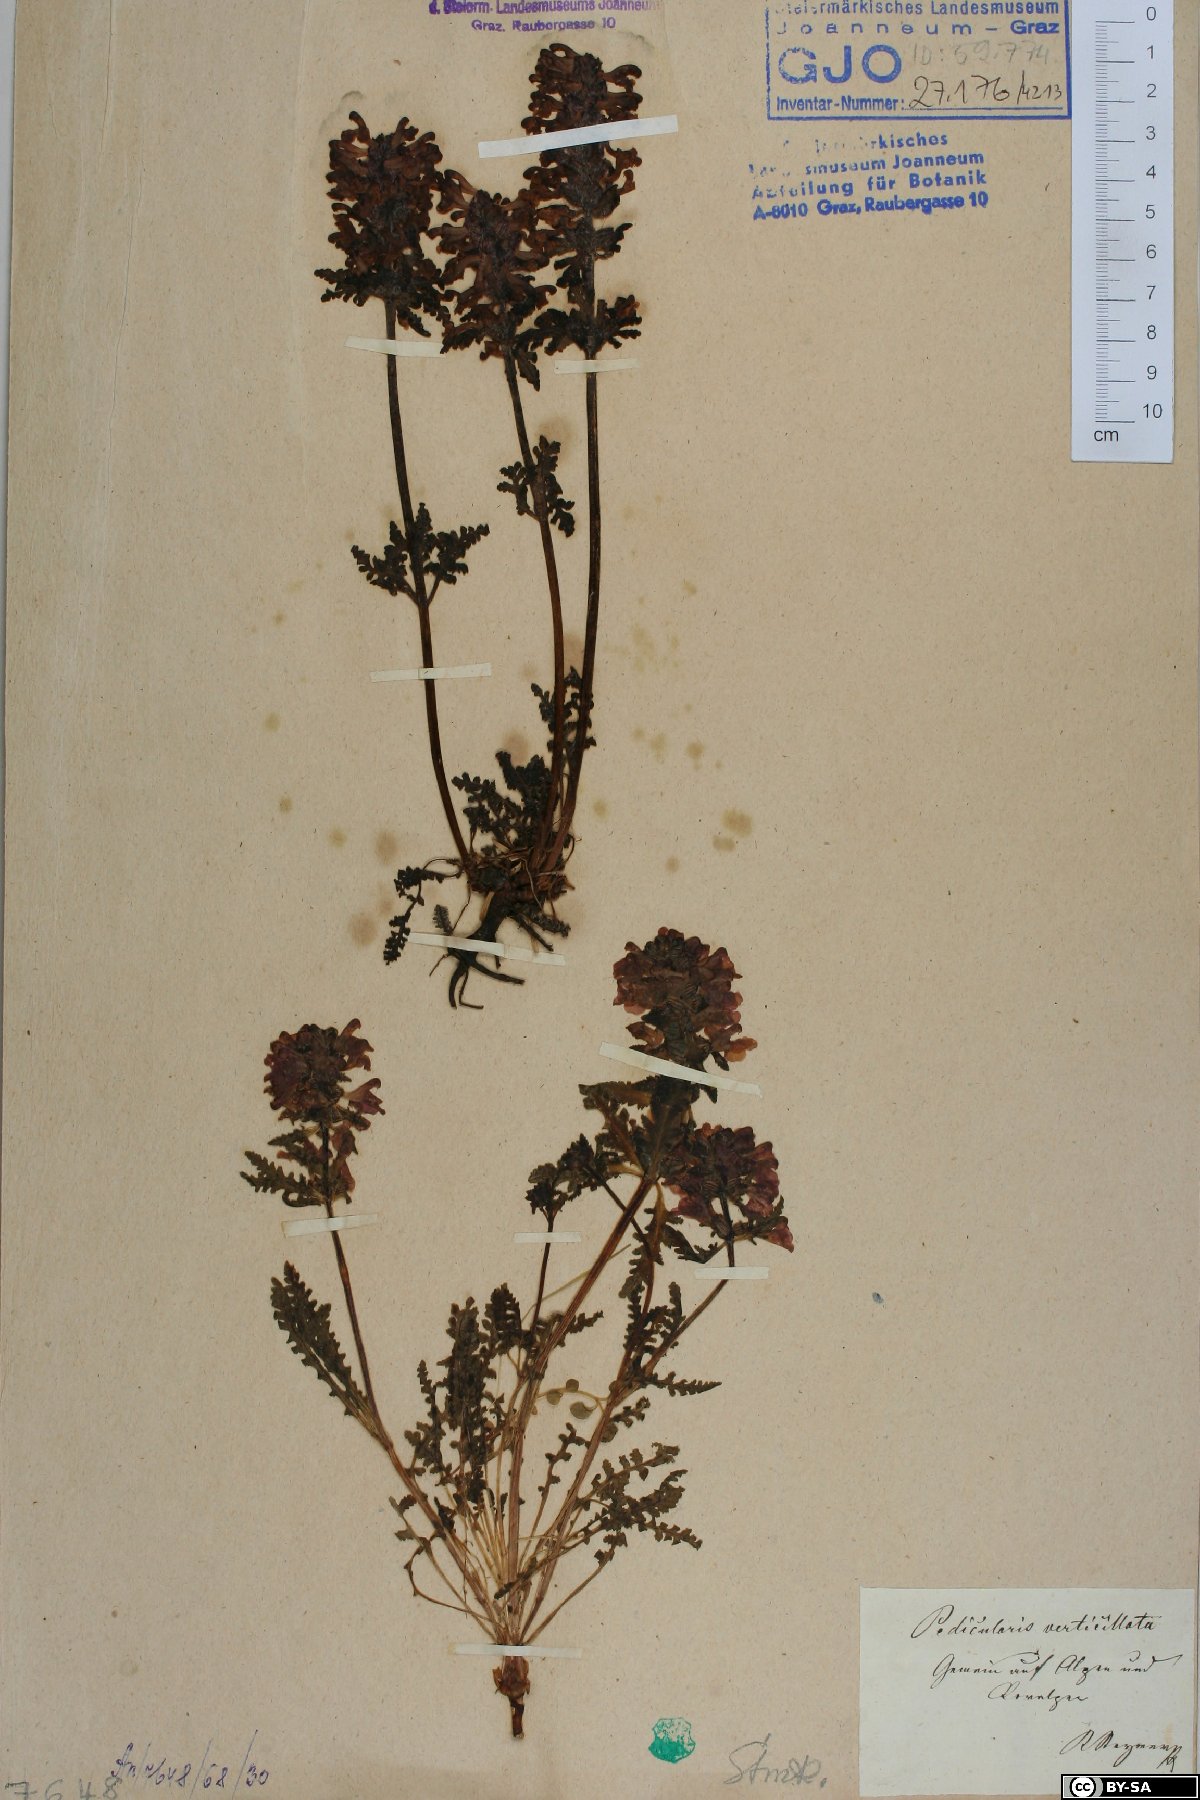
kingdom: Plantae
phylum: Tracheophyta
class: Magnoliopsida
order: Lamiales
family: Orobanchaceae
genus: Pedicularis
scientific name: Pedicularis verticillata
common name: Whorled lousewort
